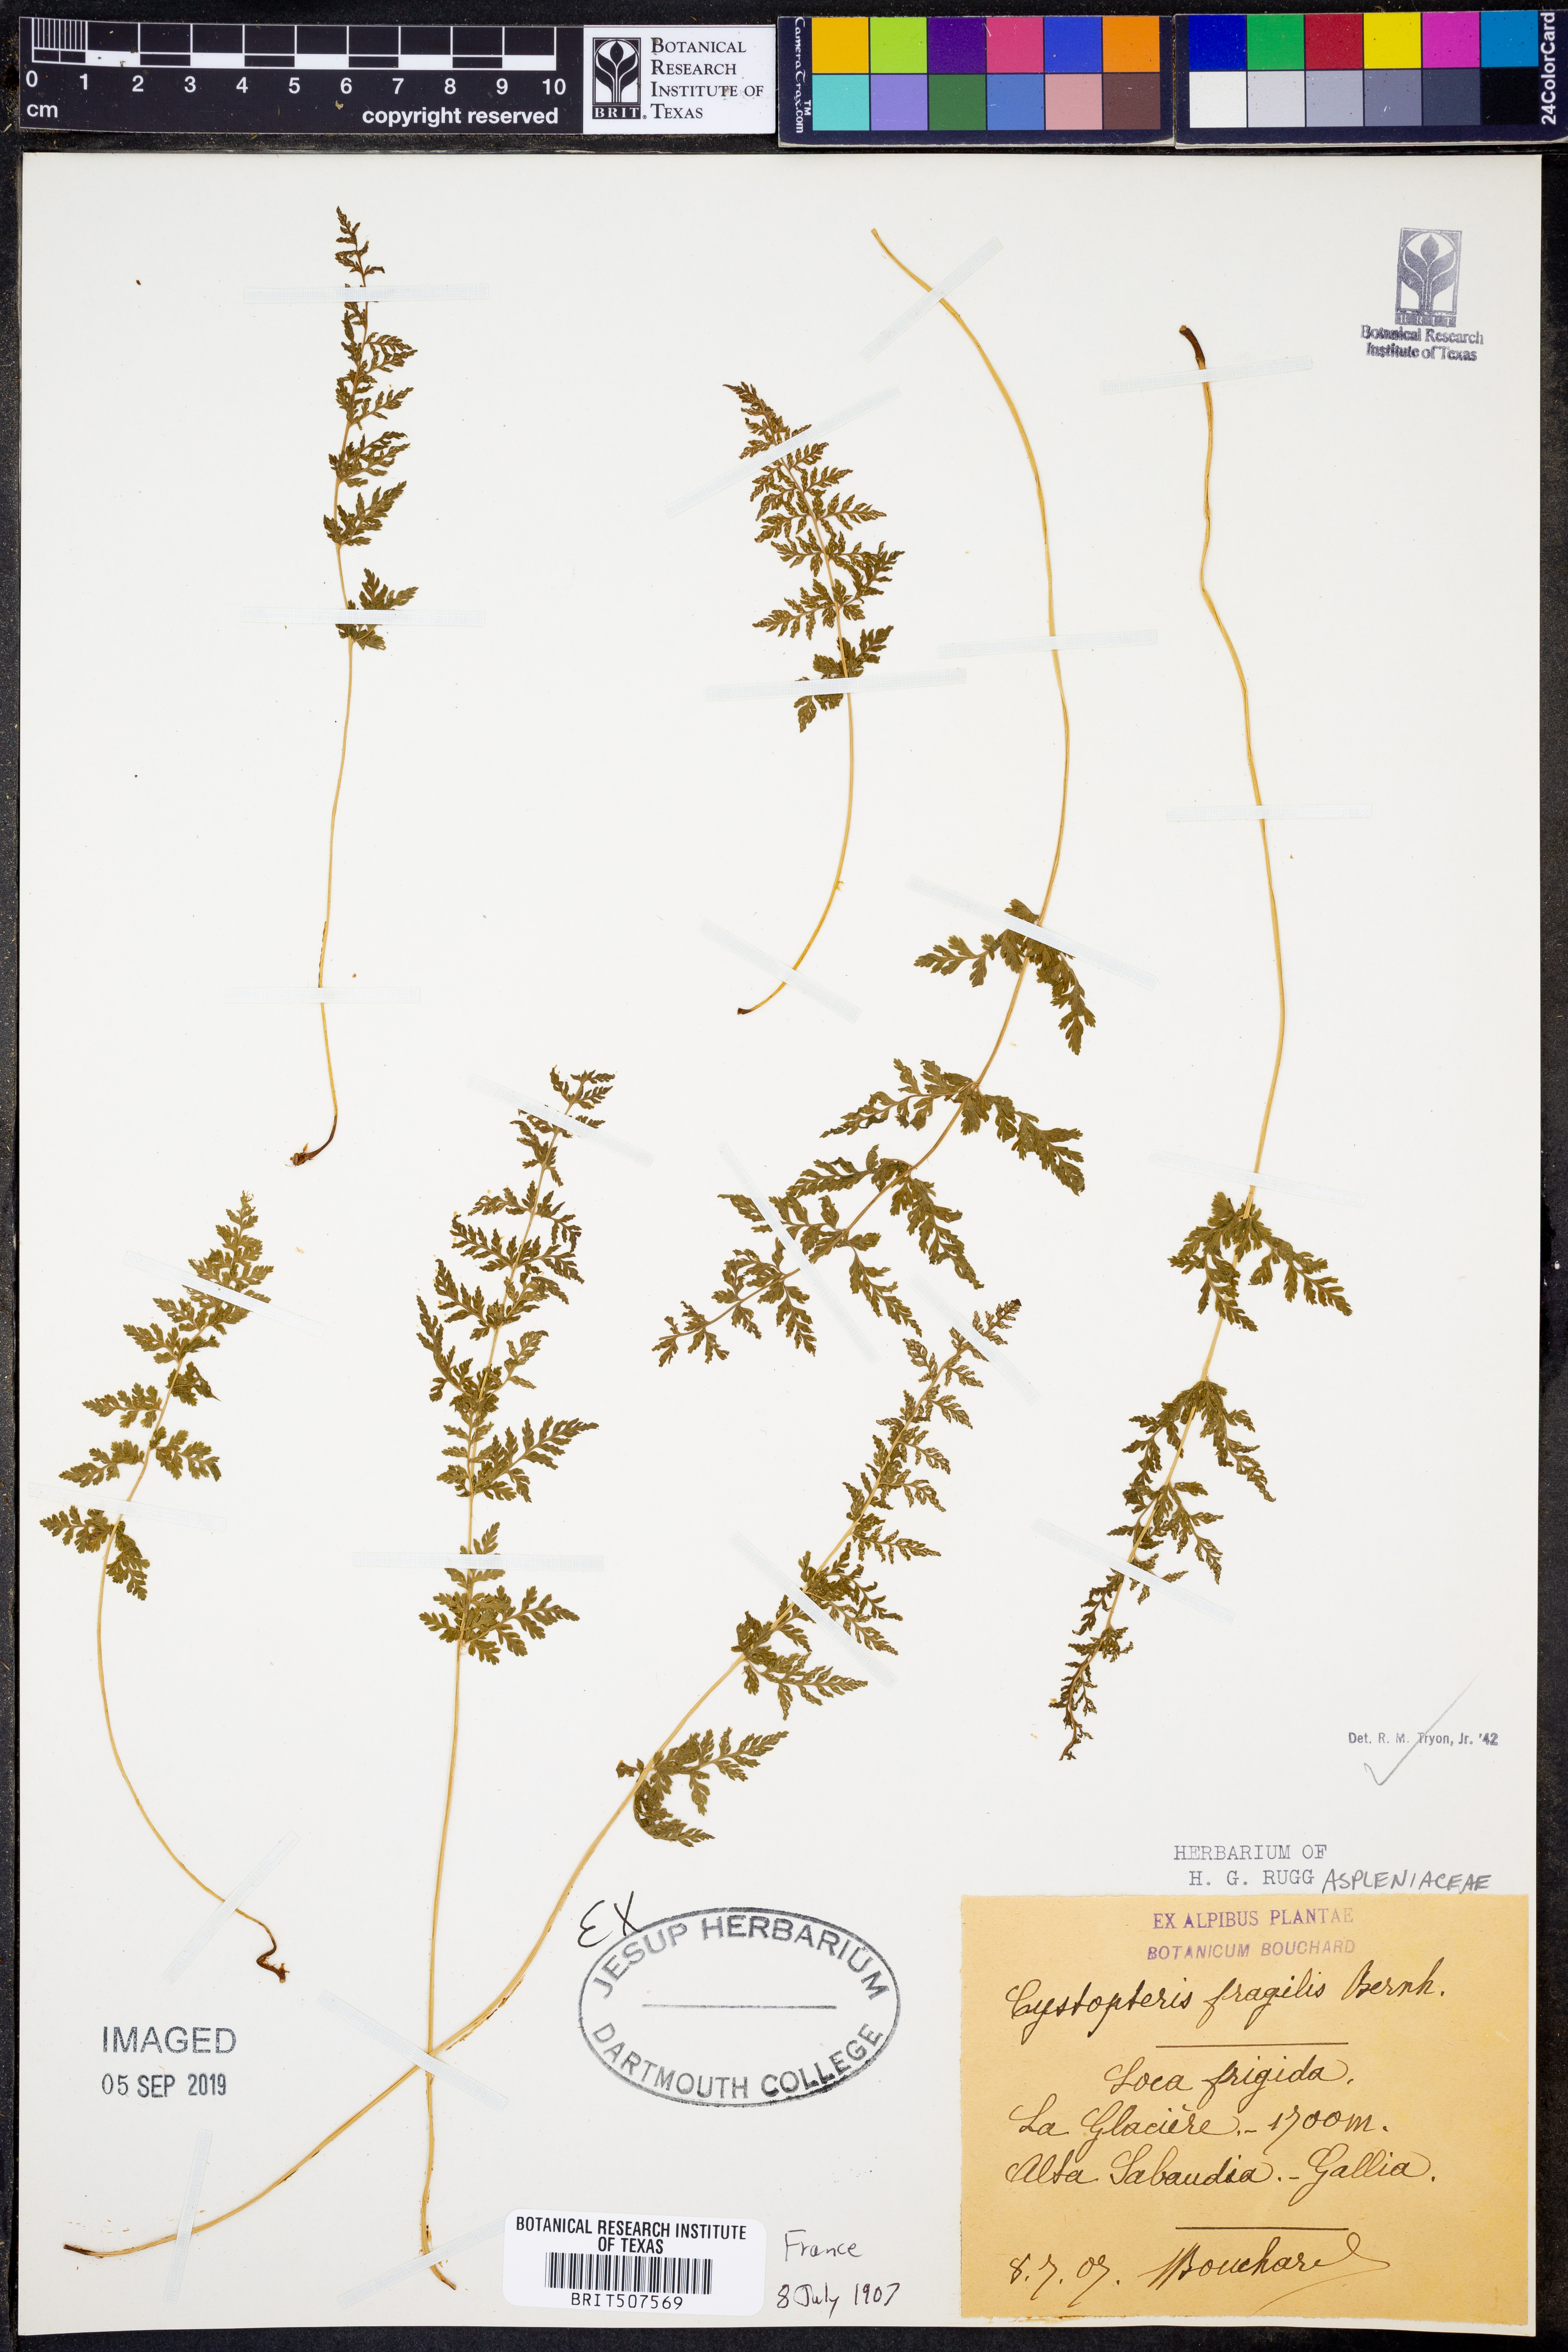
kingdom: Plantae
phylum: Tracheophyta
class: Polypodiopsida
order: Polypodiales
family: Cystopteridaceae
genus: Cystopteris
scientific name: Cystopteris fragilis
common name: Brittle bladder fern
